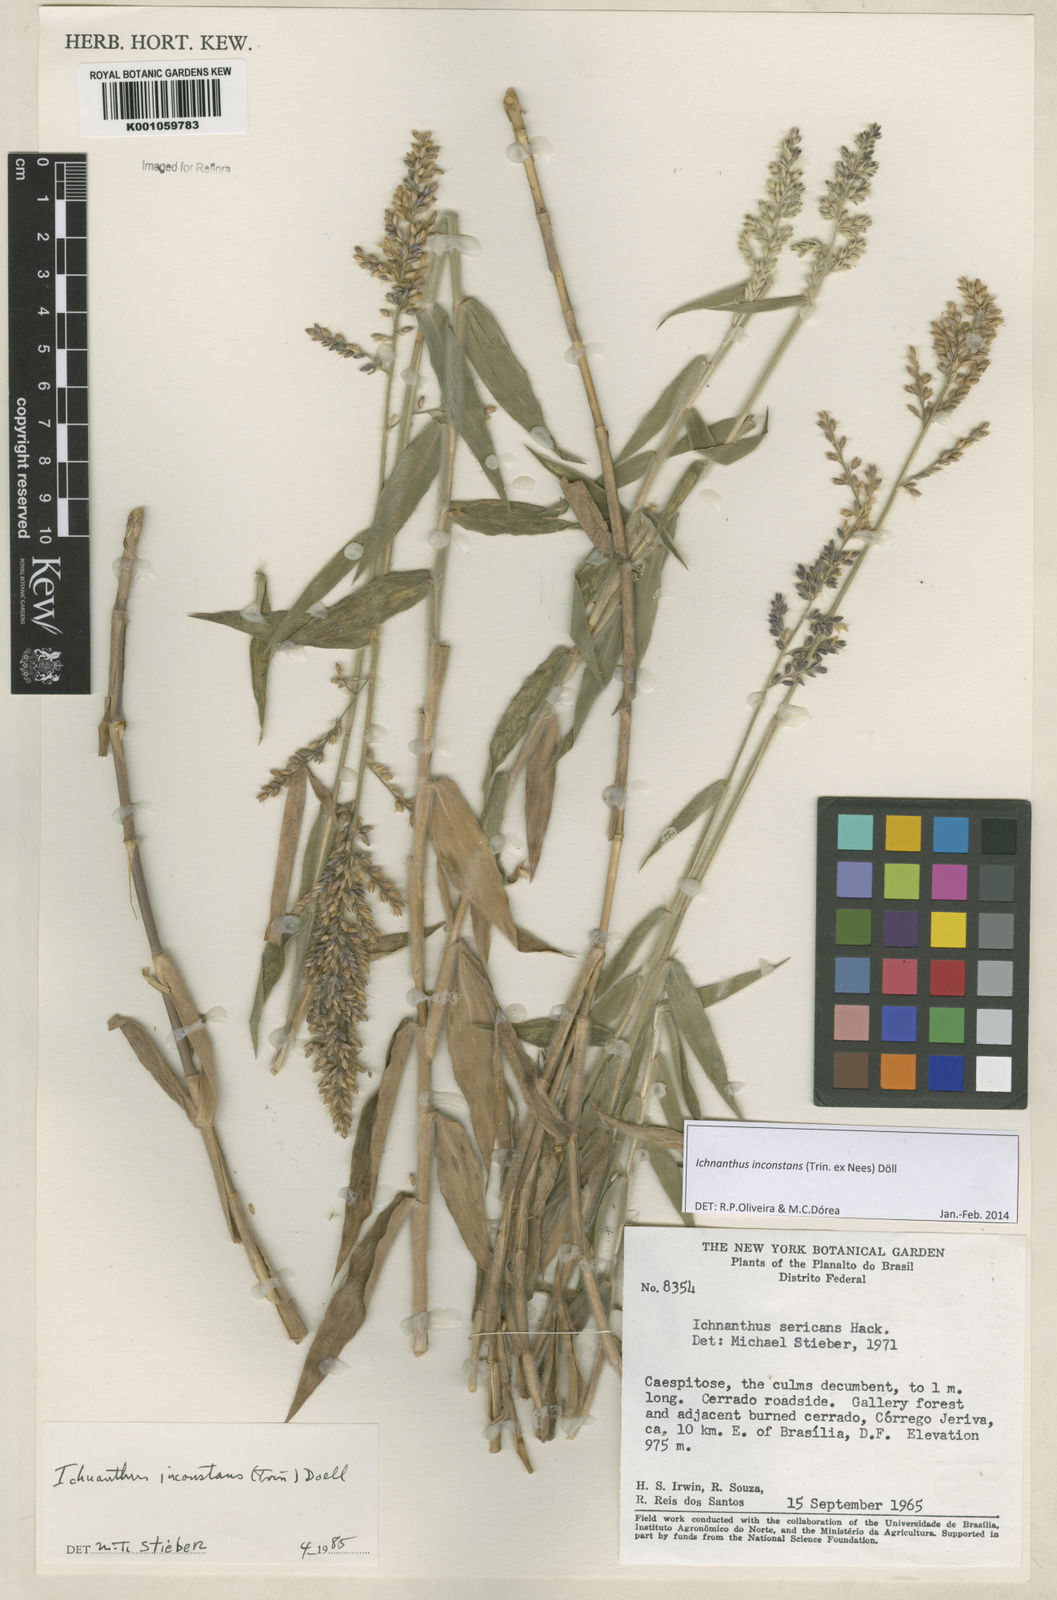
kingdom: Plantae
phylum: Tracheophyta
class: Liliopsida
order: Poales
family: Poaceae
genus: Ichnanthus
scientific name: Ichnanthus
